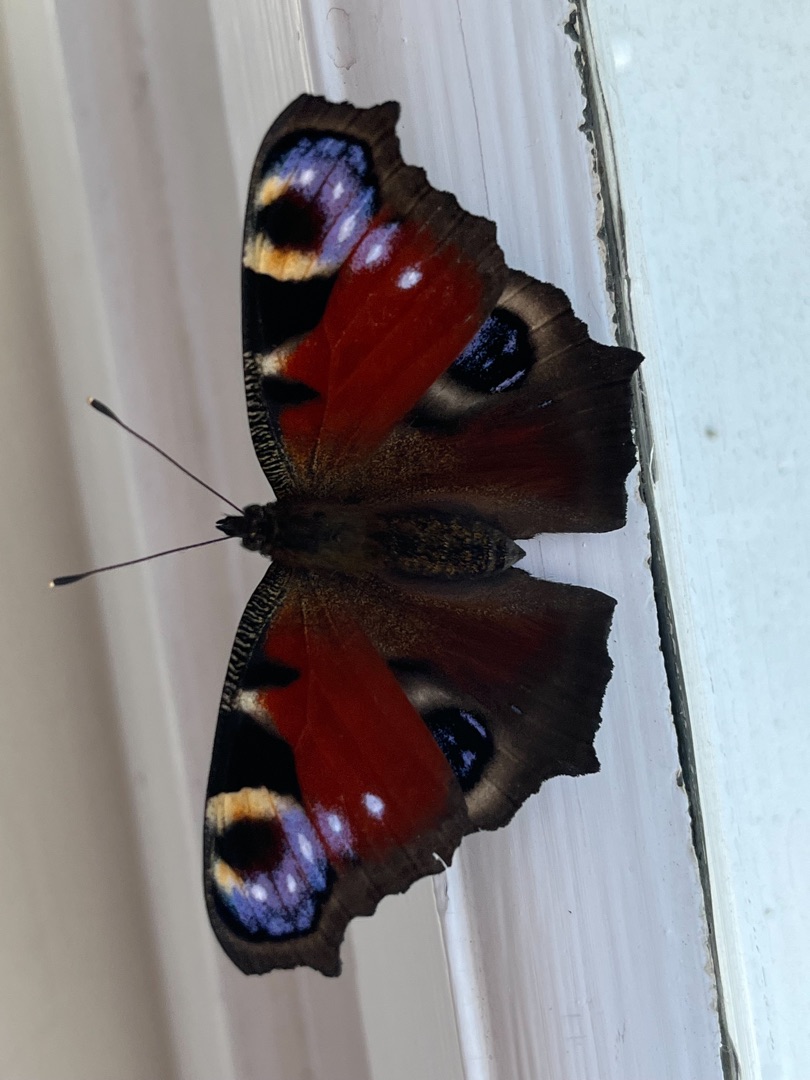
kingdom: Animalia
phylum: Arthropoda
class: Insecta
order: Lepidoptera
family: Nymphalidae
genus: Aglais
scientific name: Aglais io
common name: Dagpåfugleøje
